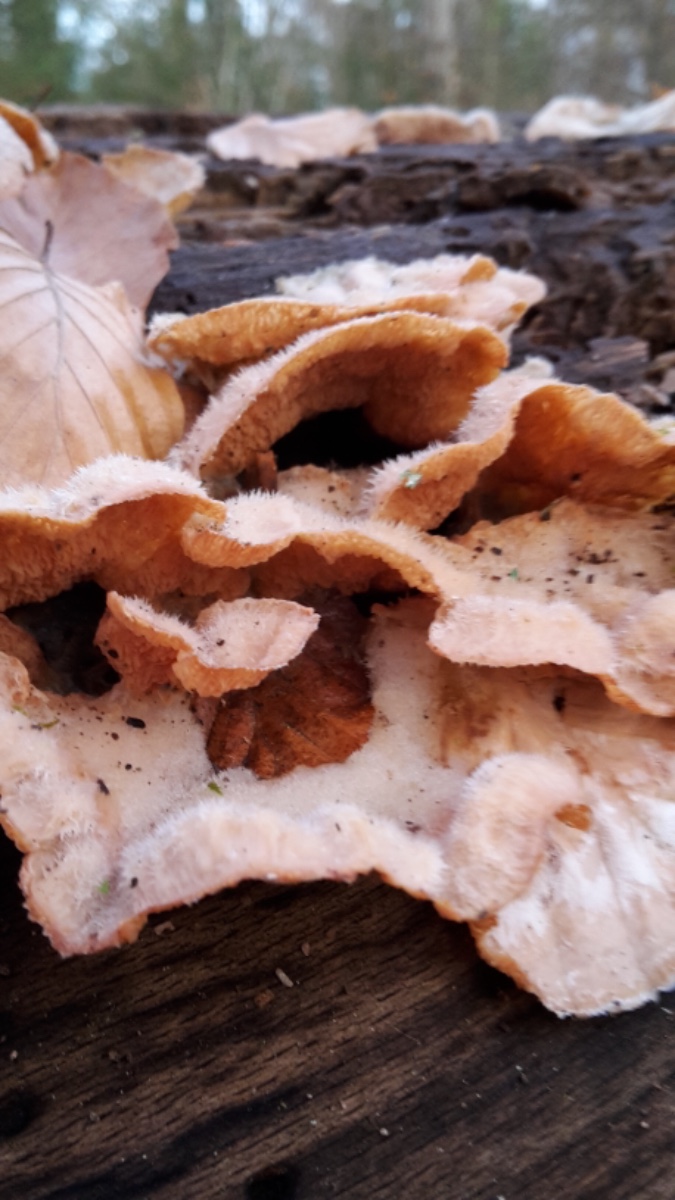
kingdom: Fungi
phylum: Basidiomycota
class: Agaricomycetes
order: Polyporales
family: Meruliaceae
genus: Phlebia
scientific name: Phlebia tremellosa
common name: bævrende åresvamp
